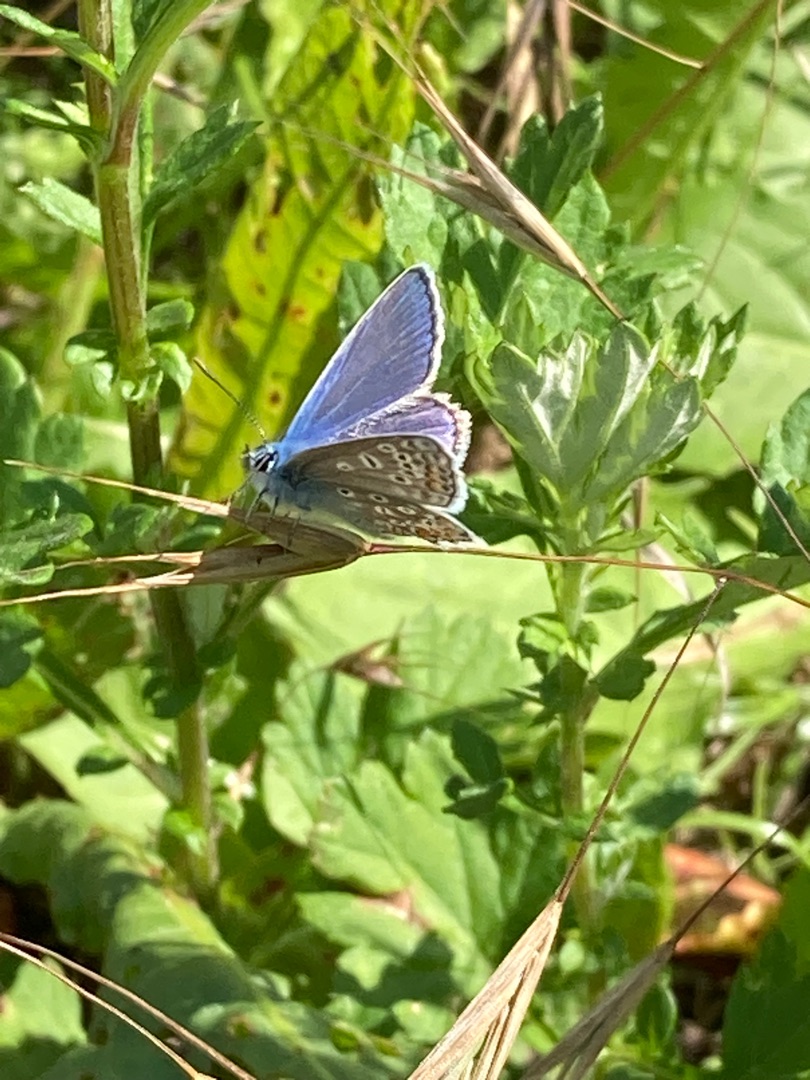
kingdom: Animalia
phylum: Arthropoda
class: Insecta
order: Lepidoptera
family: Lycaenidae
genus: Polyommatus
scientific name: Polyommatus icarus
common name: Almindelig blåfugl
